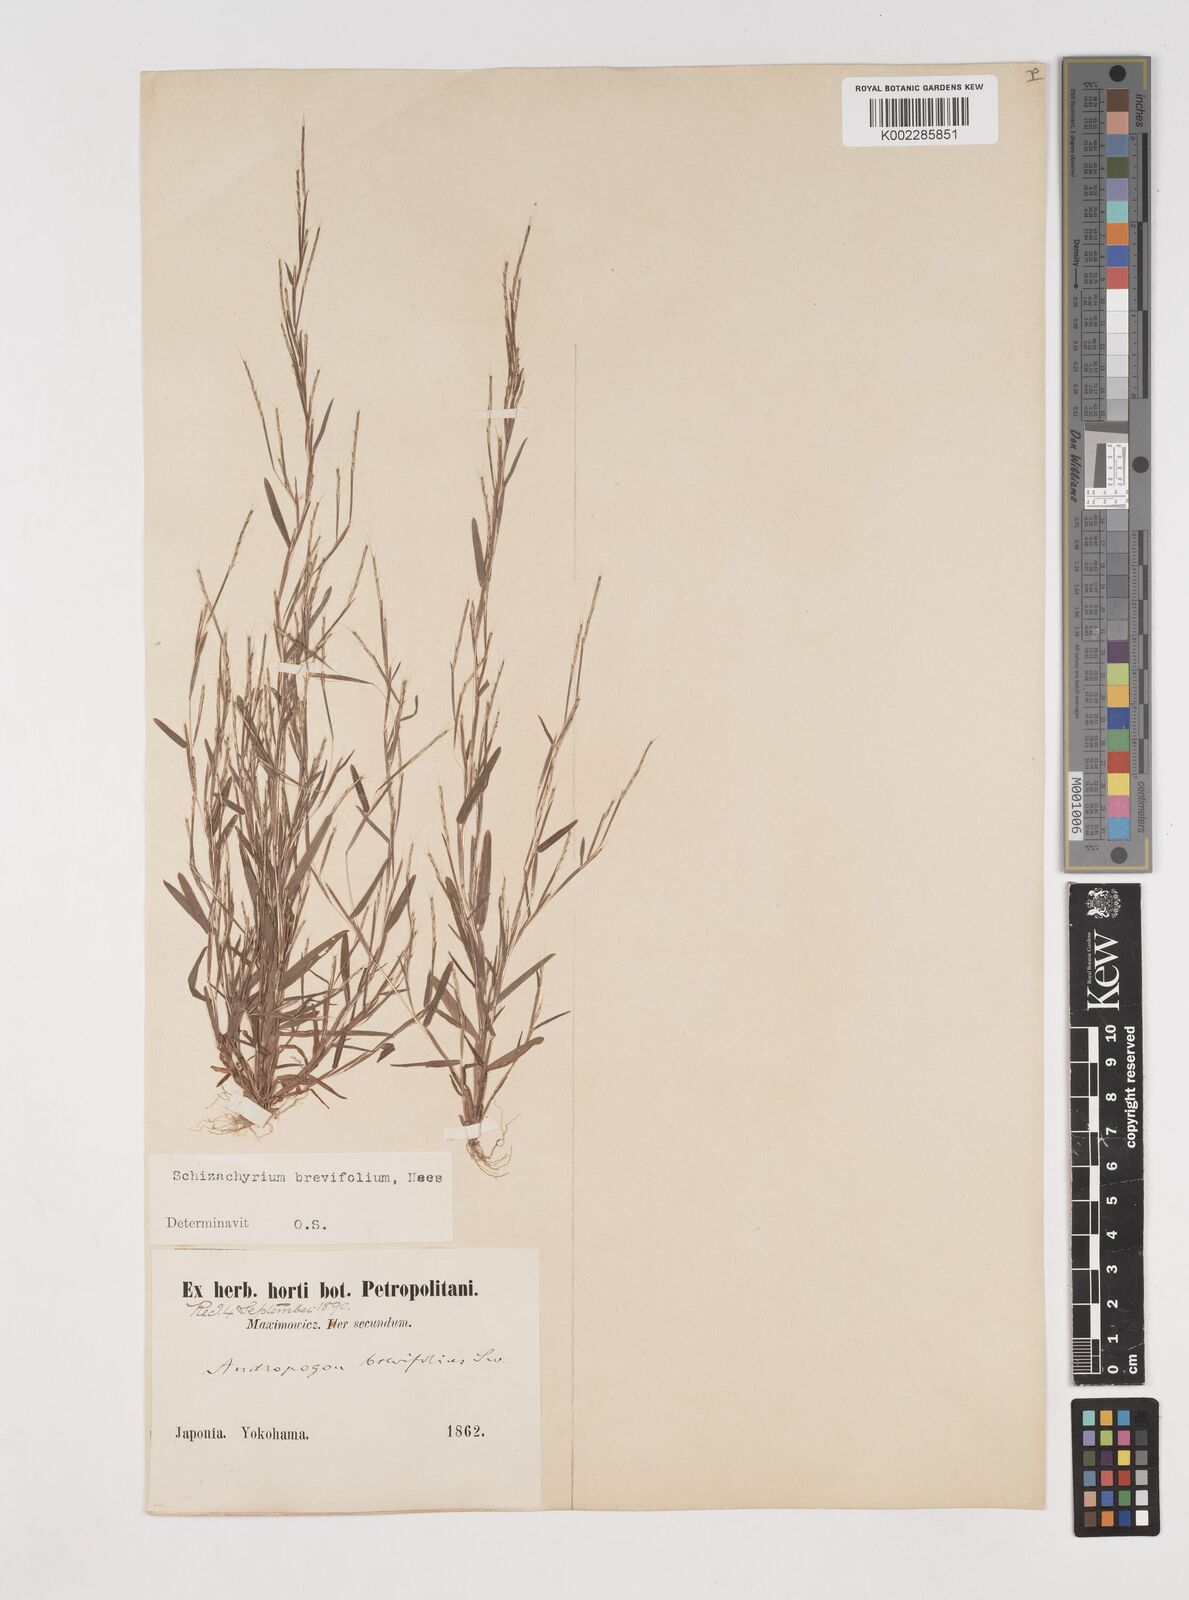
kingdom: Plantae
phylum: Tracheophyta
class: Liliopsida
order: Poales
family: Poaceae
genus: Schizachyrium
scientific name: Schizachyrium brevifolium
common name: Serillo dulce
